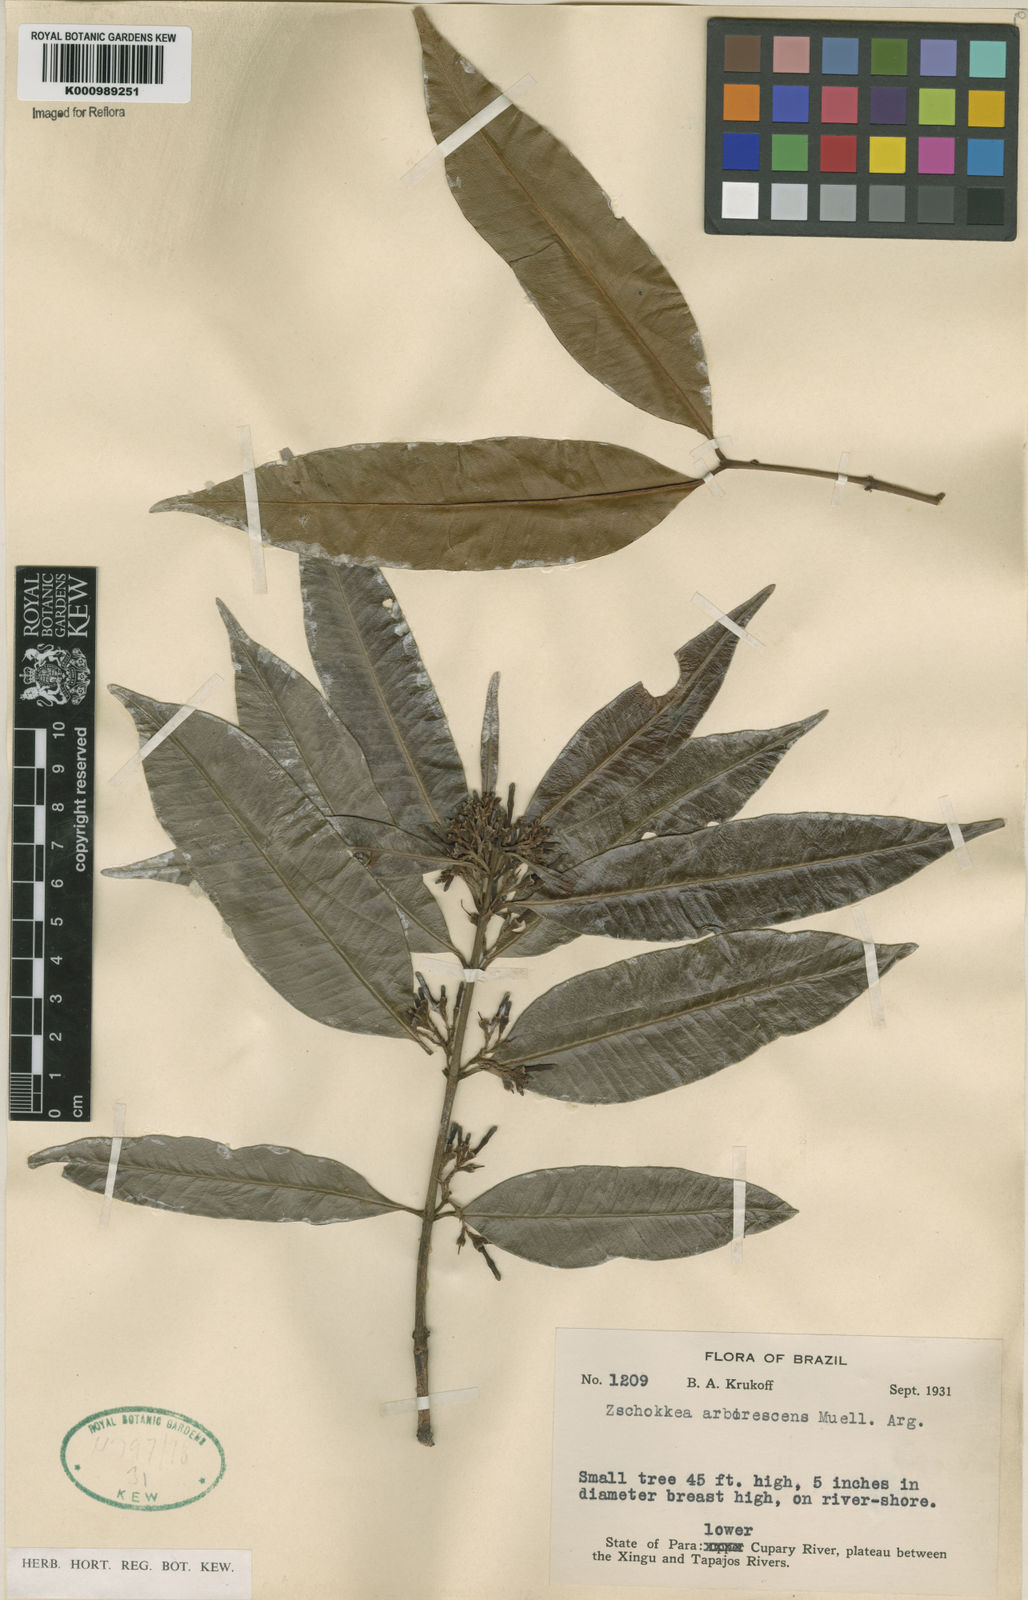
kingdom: Plantae
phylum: Tracheophyta
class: Magnoliopsida
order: Gentianales
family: Apocynaceae
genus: Lacmellea
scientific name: Lacmellea
